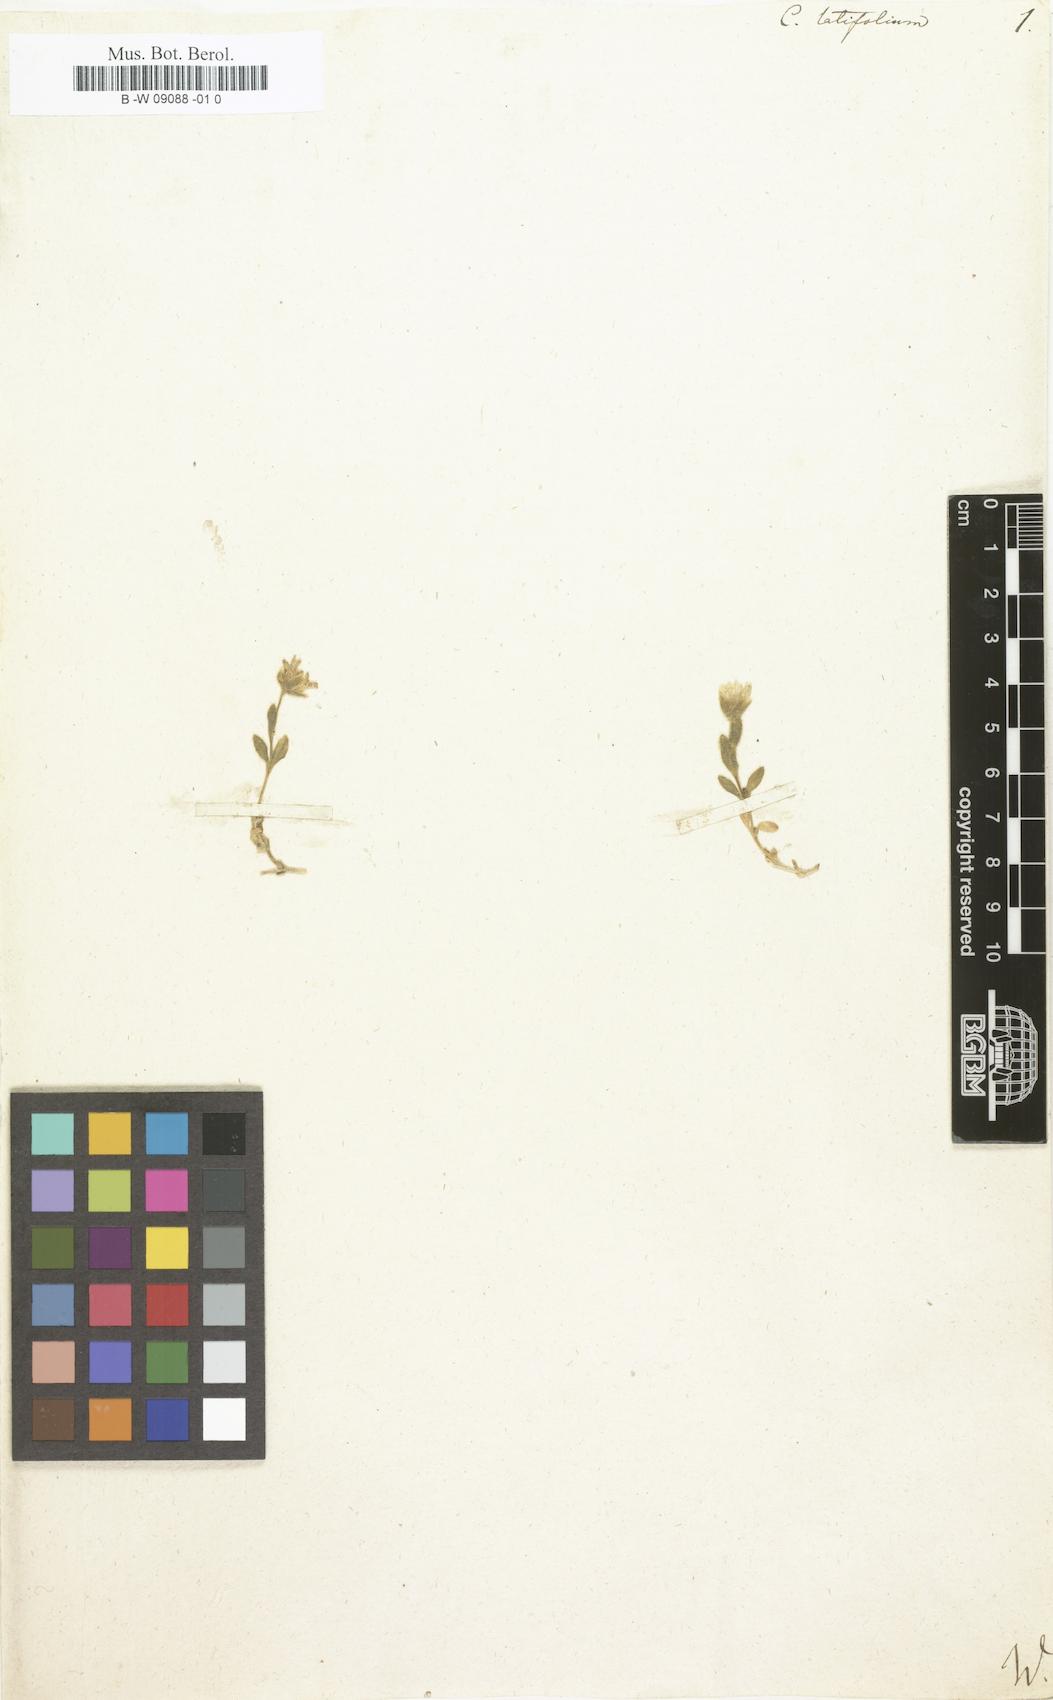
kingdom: Plantae
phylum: Tracheophyta
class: Magnoliopsida
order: Caryophyllales
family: Caryophyllaceae
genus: Cerastium
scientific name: Cerastium latifolium
